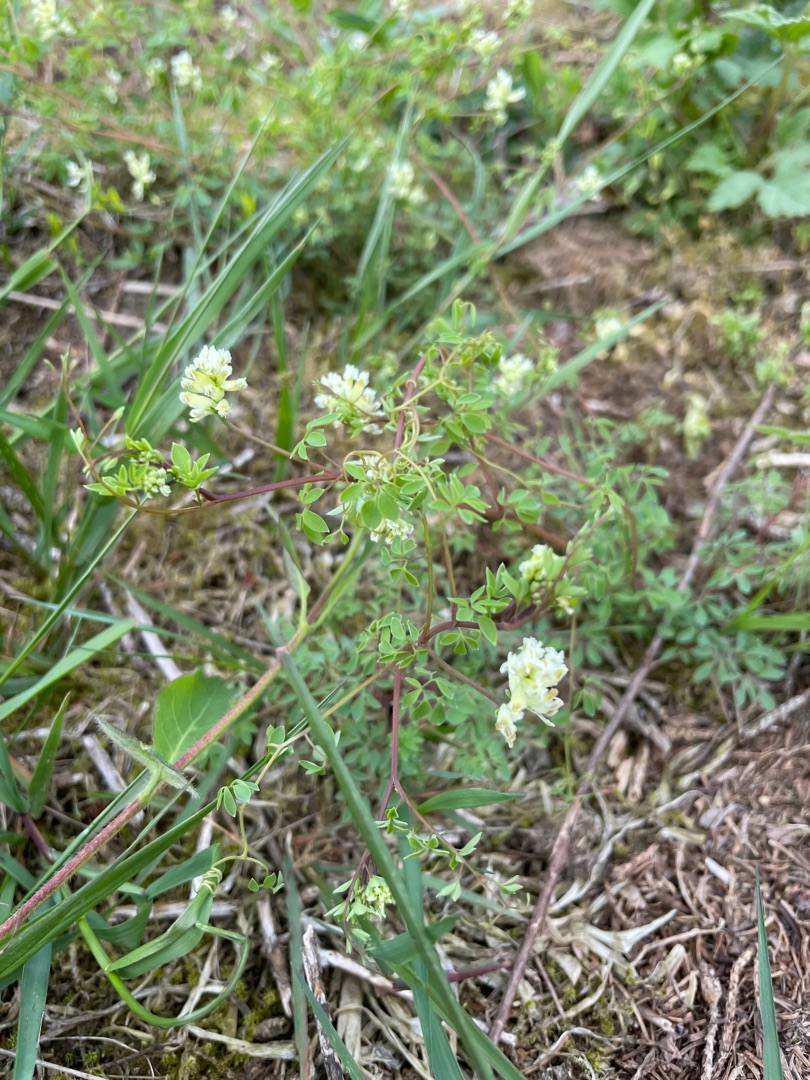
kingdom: Plantae
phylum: Tracheophyta
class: Magnoliopsida
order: Ranunculales
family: Papaveraceae
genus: Ceratocapnos
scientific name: Ceratocapnos claviculata
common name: Klatrende lærkespore
